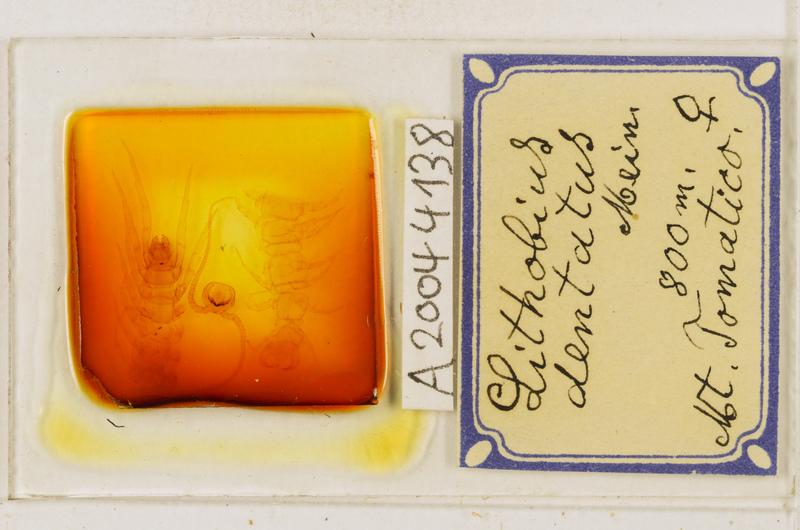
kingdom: Animalia
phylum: Arthropoda
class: Chilopoda
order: Lithobiomorpha
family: Lithobiidae
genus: Lithobius
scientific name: Lithobius dentatus
